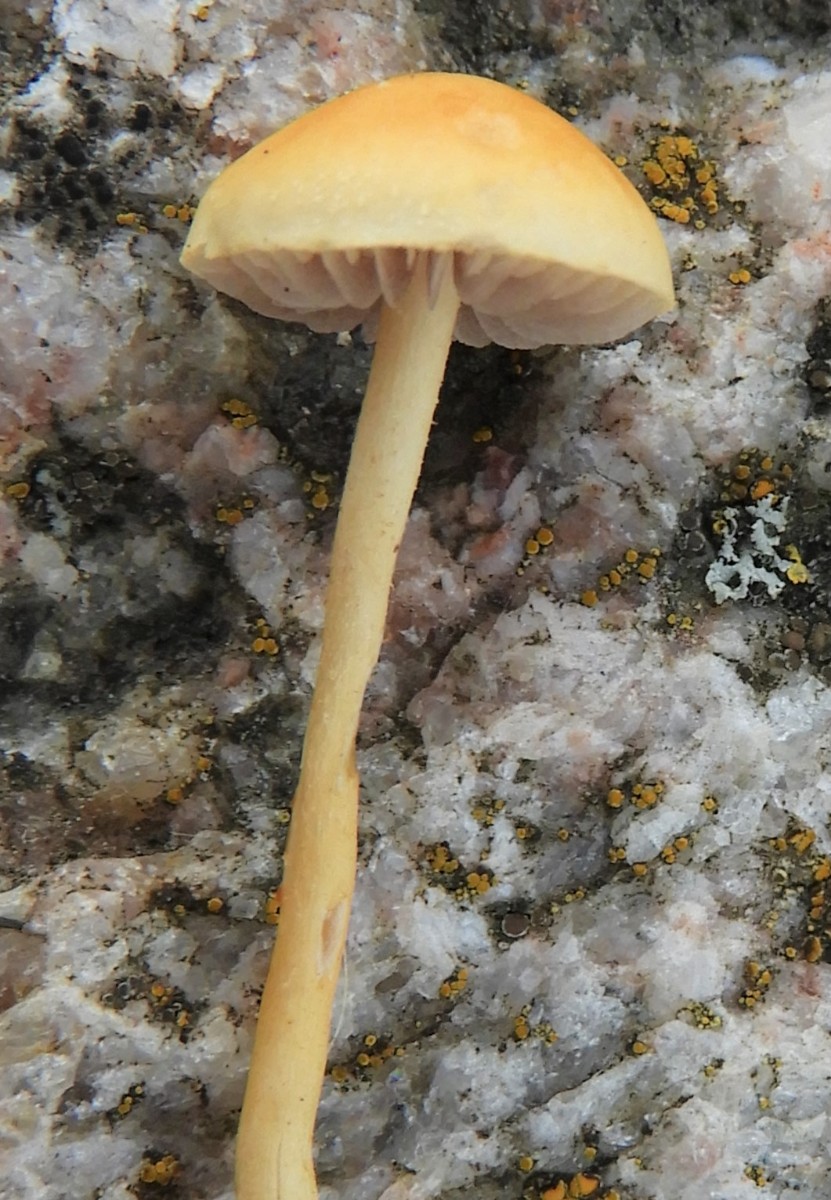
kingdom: Fungi
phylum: Basidiomycota
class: Agaricomycetes
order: Agaricales
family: Strophariaceae
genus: Agrocybe
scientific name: Agrocybe
